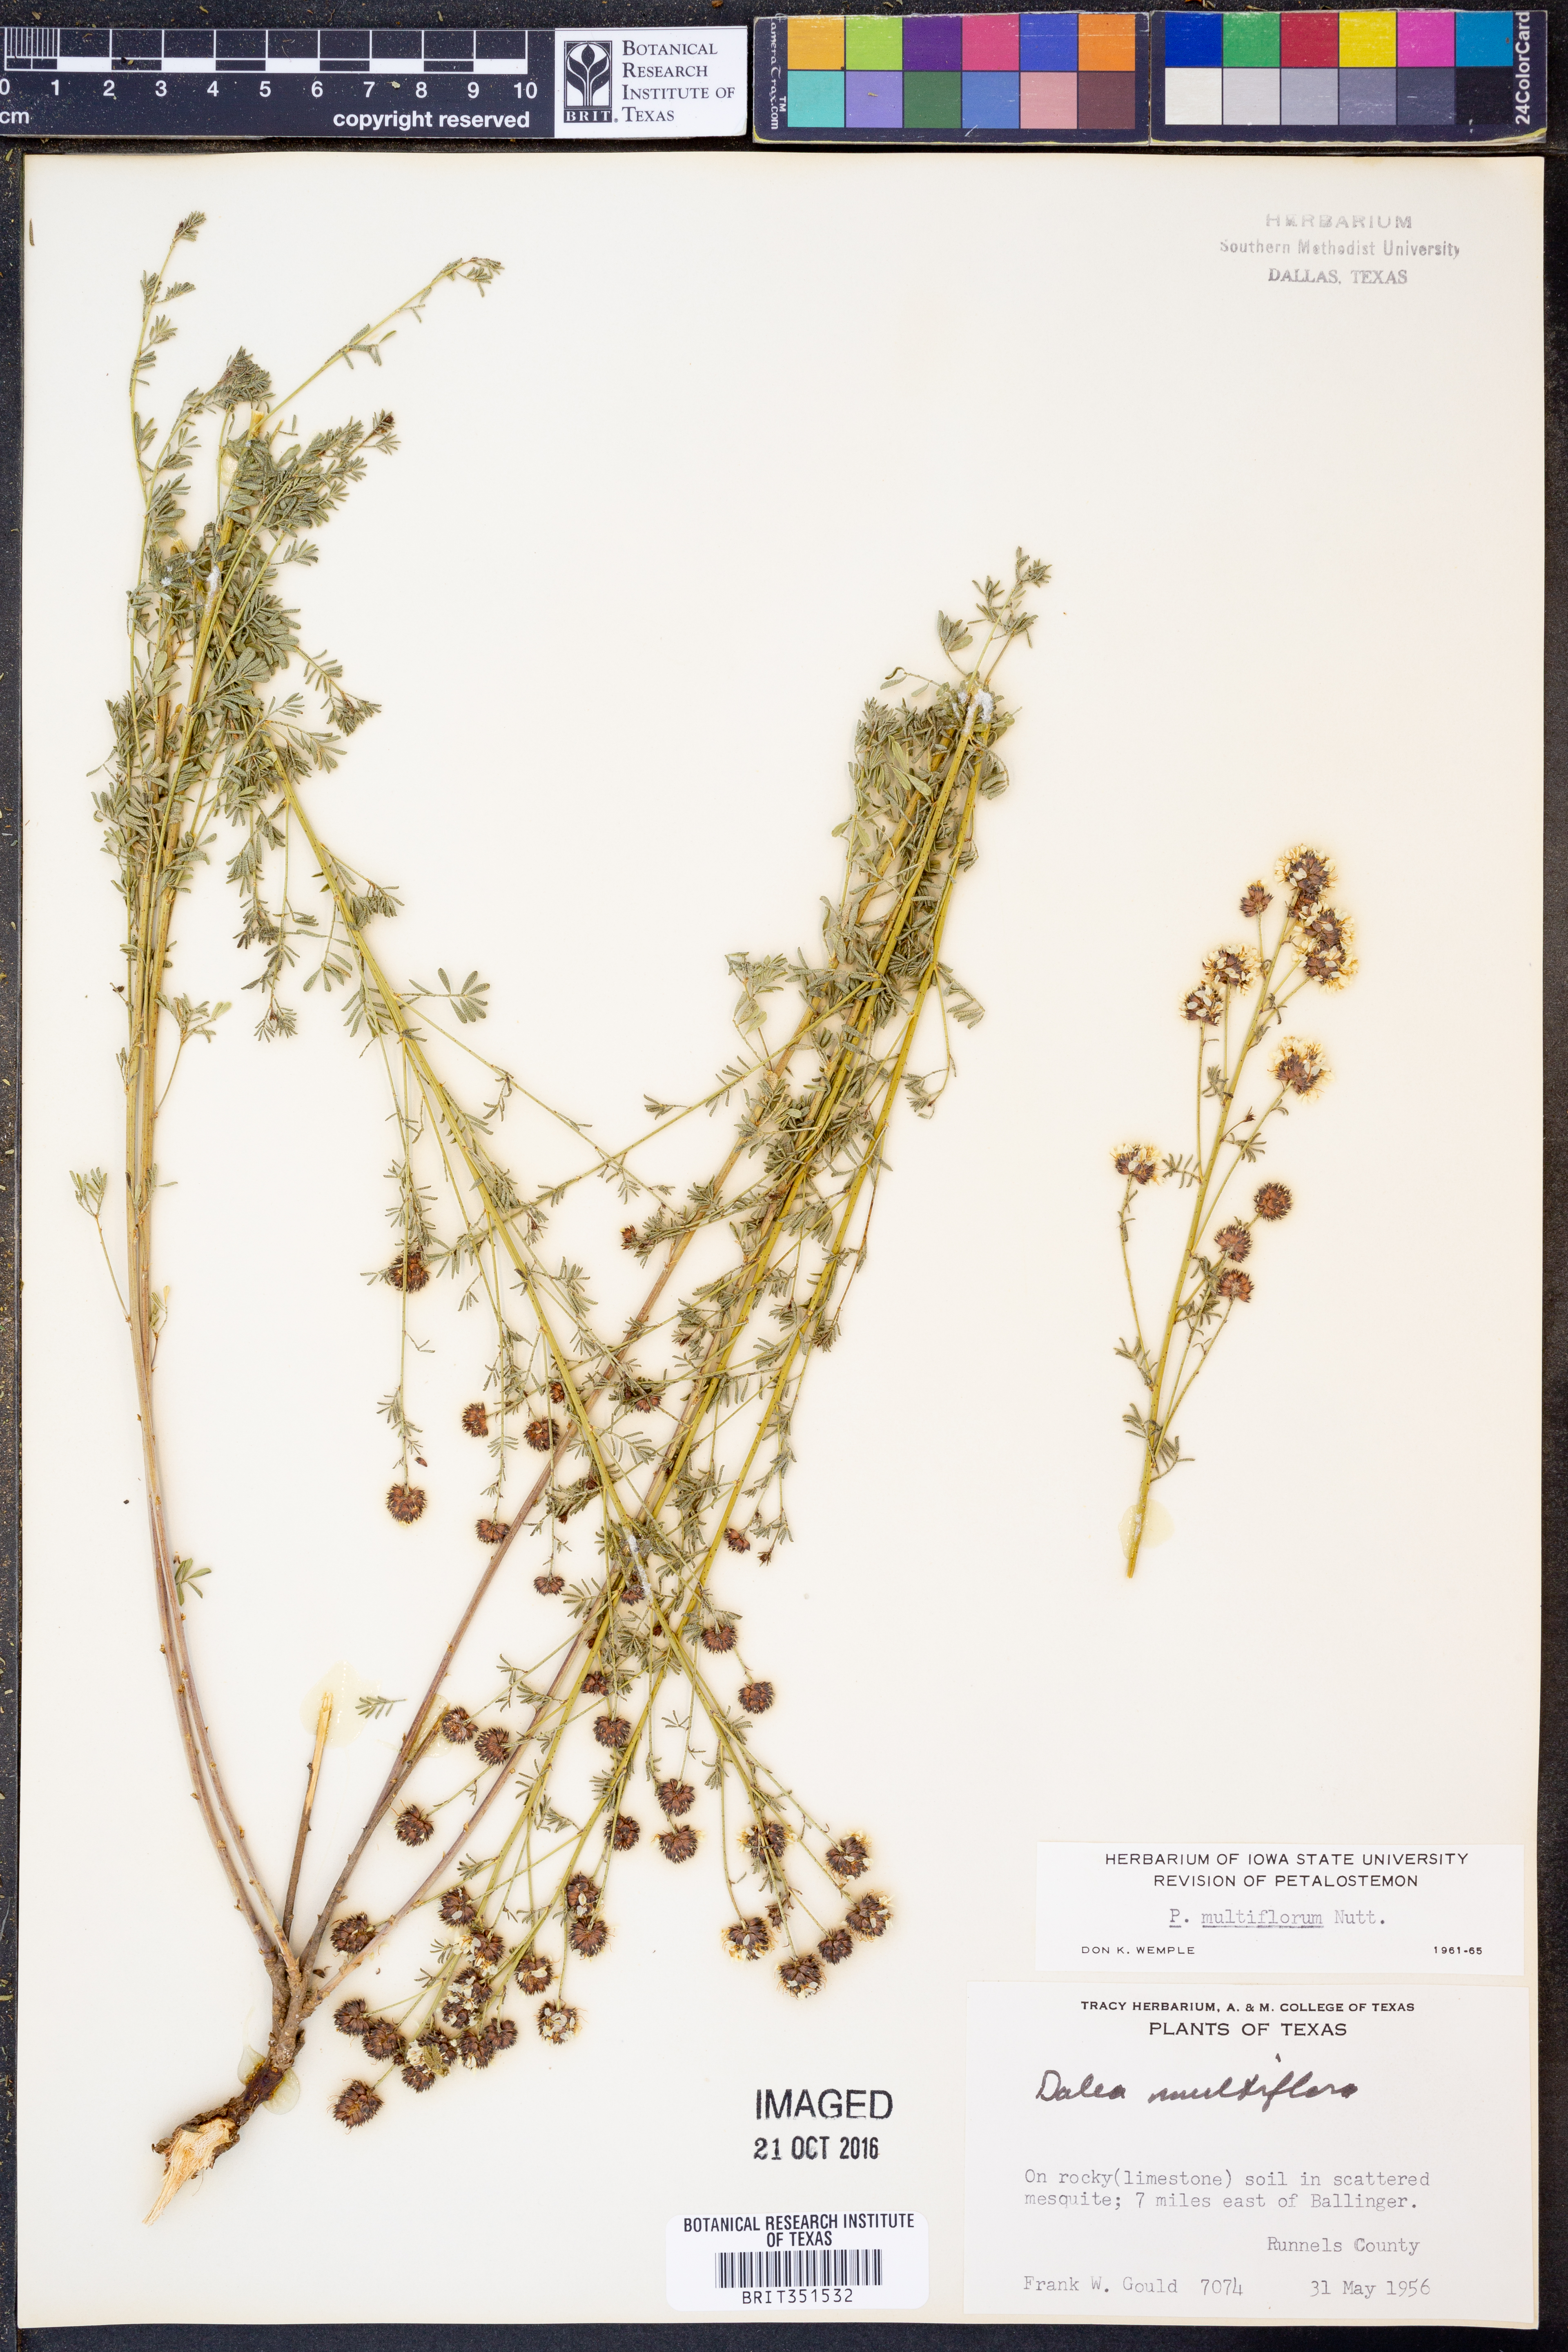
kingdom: Plantae
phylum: Tracheophyta
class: Magnoliopsida
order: Fabales
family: Fabaceae
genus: Dalea
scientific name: Dalea multiflora
